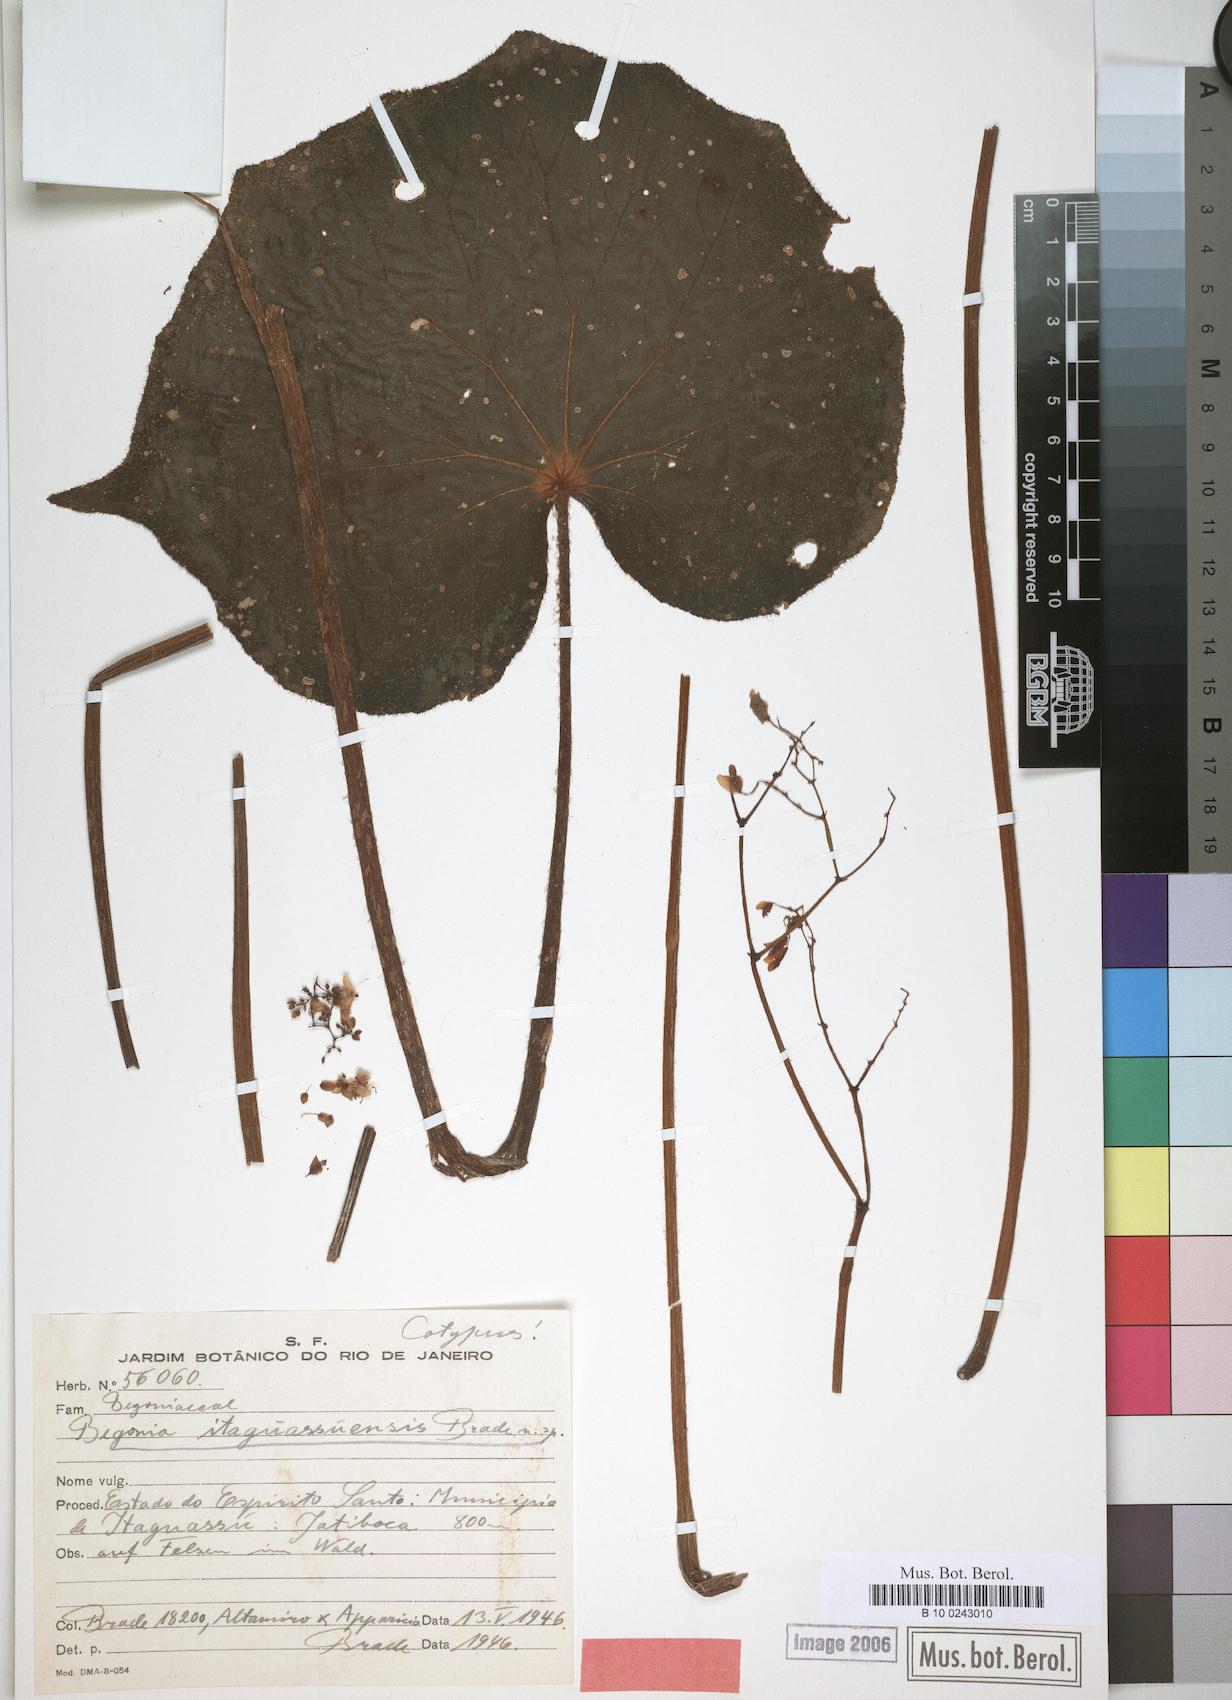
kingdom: Plantae
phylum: Tracheophyta
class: Magnoliopsida
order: Cucurbitales
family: Begoniaceae
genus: Begonia
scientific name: Begonia itaguassuensis
